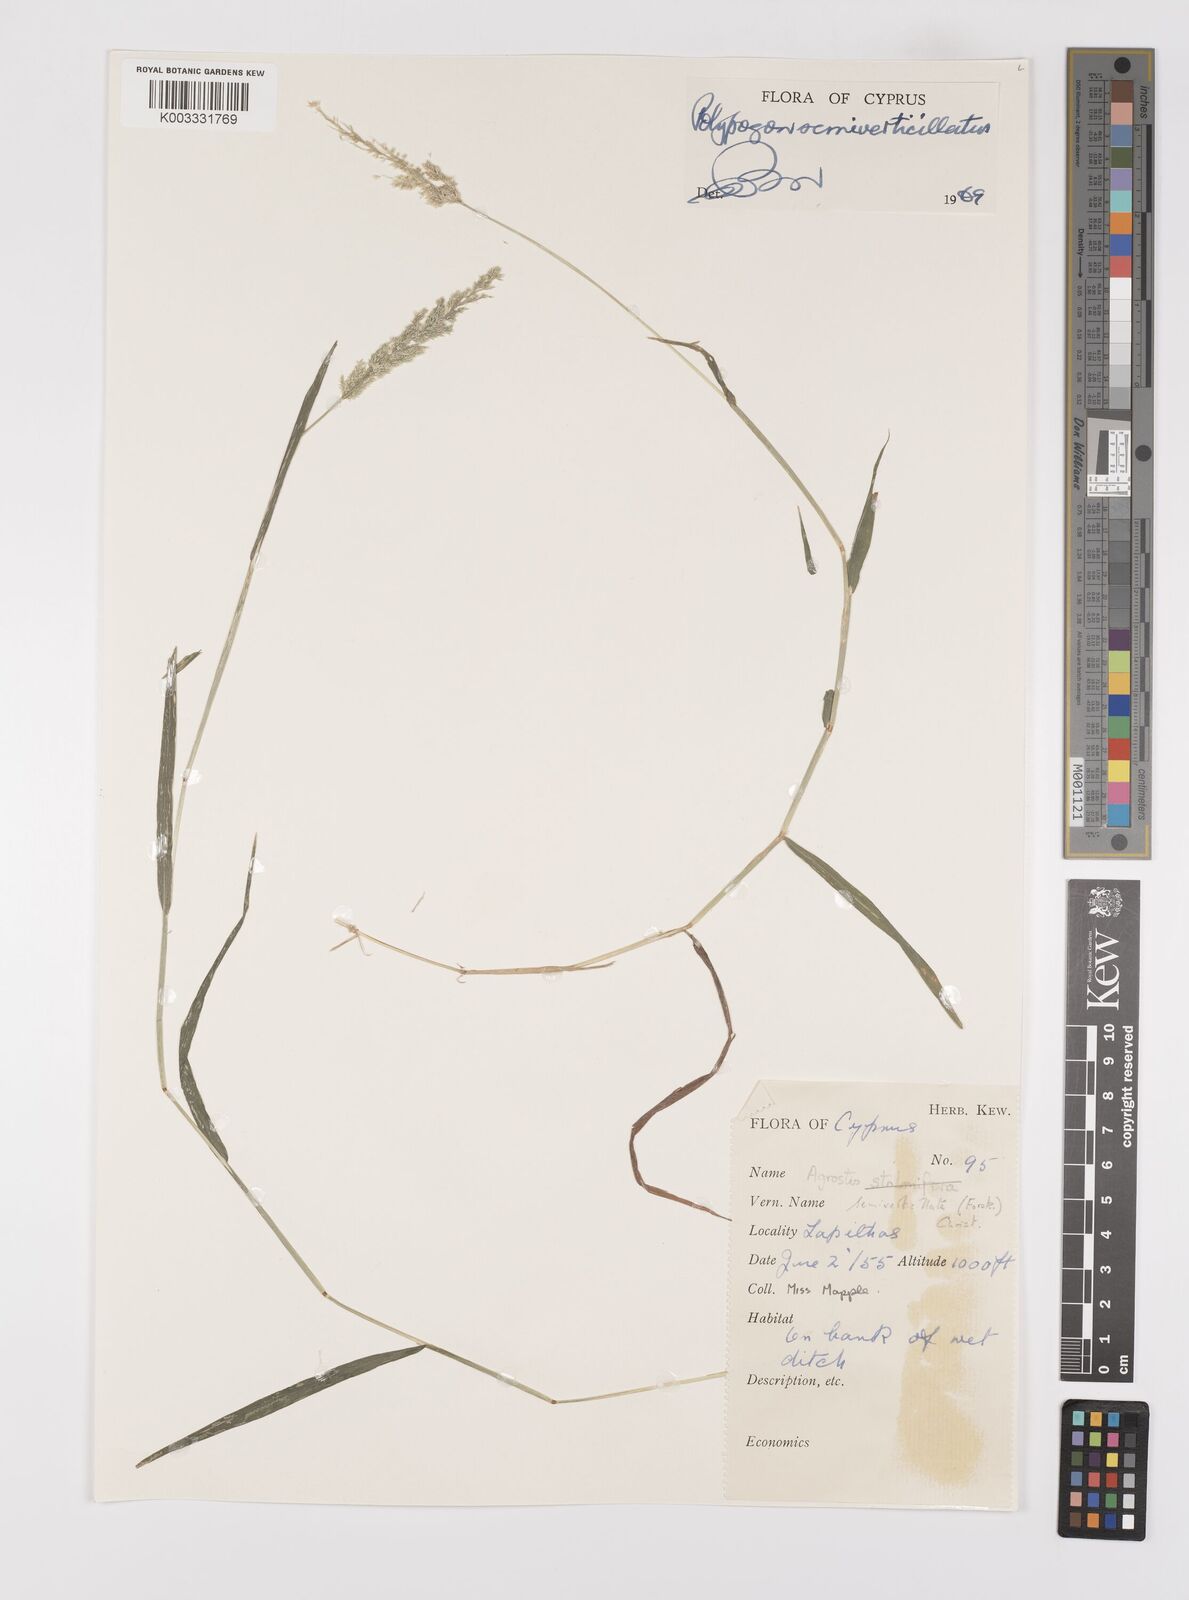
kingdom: Plantae
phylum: Tracheophyta
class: Liliopsida
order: Poales
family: Poaceae
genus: Polypogon
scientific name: Polypogon viridis
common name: Water bent
